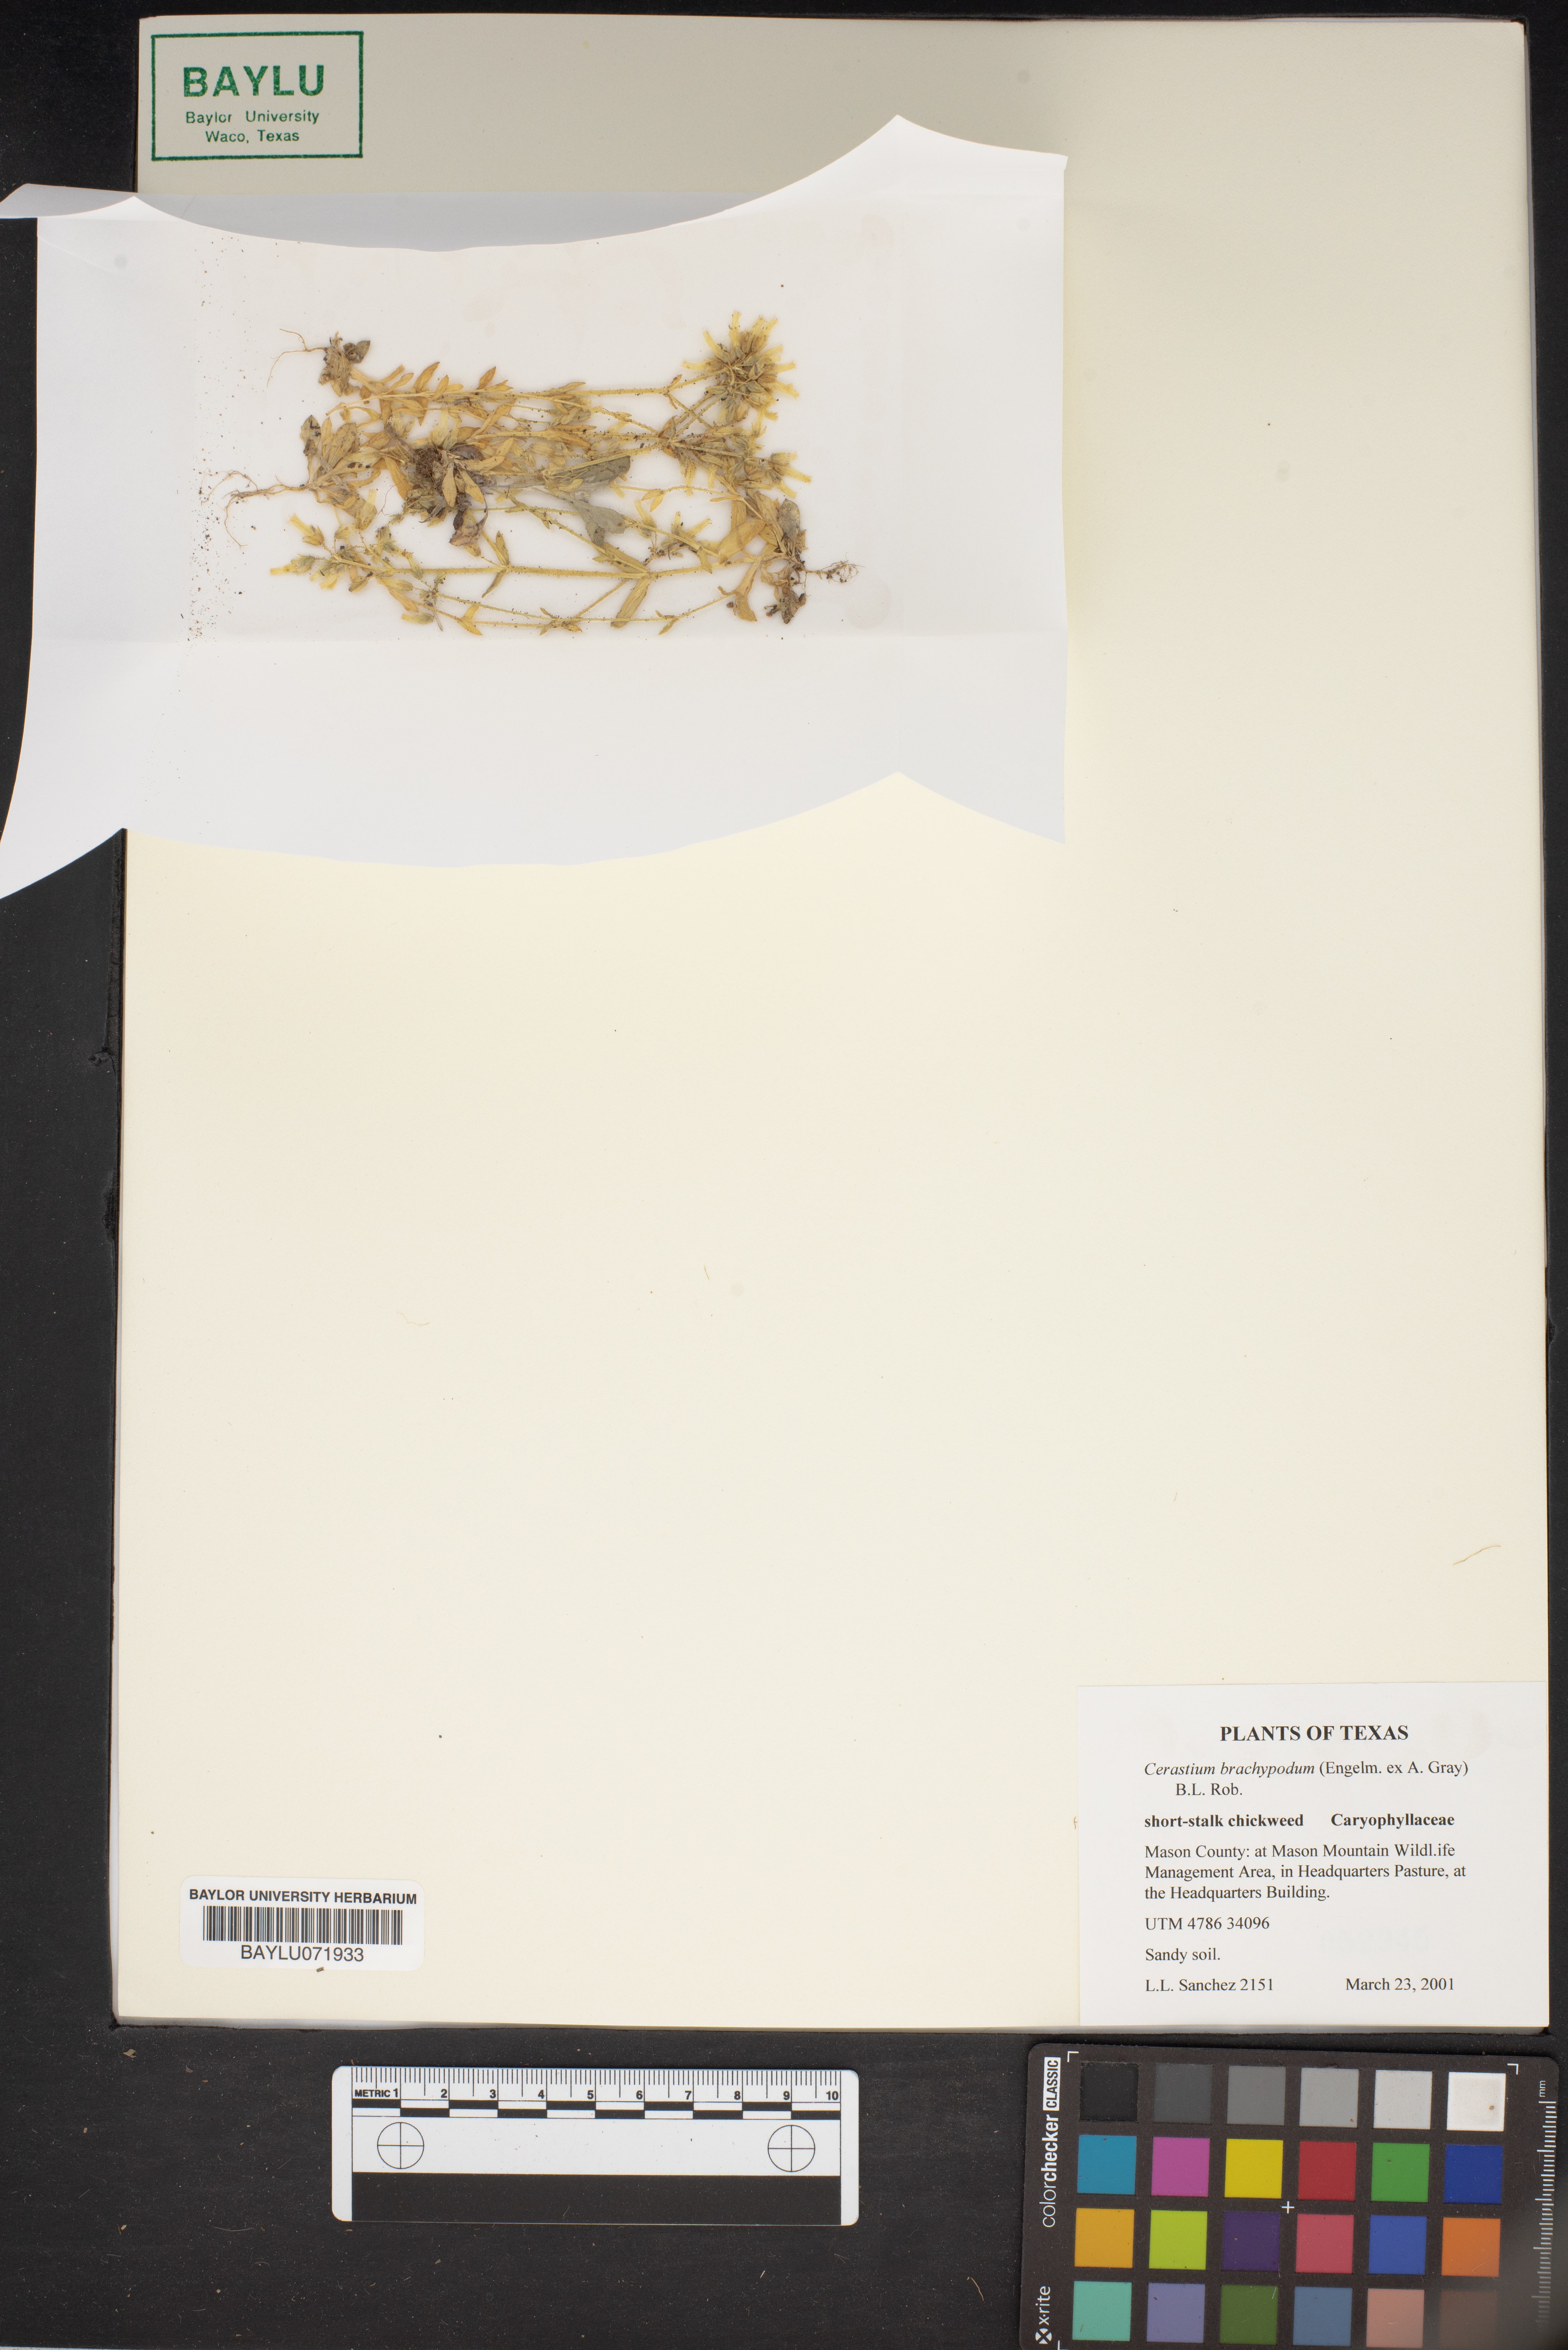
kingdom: Plantae
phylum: Tracheophyta
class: Magnoliopsida
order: Caryophyllales
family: Caryophyllaceae
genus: Cerastium
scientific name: Cerastium brachypodum
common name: Short-pedicelled nodding chickweed
